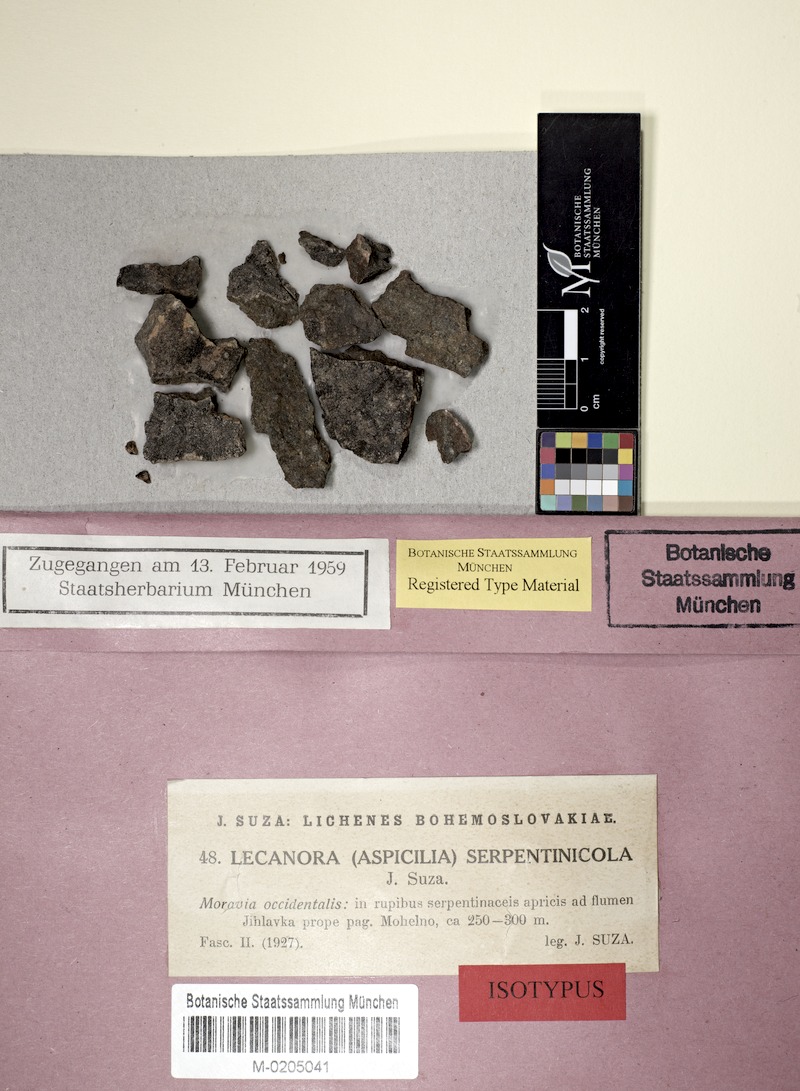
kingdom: Fungi
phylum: Ascomycota
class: Lecanoromycetes
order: Pertusariales
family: Megasporaceae
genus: Aspicilia
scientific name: Aspicilia serpentinicola
